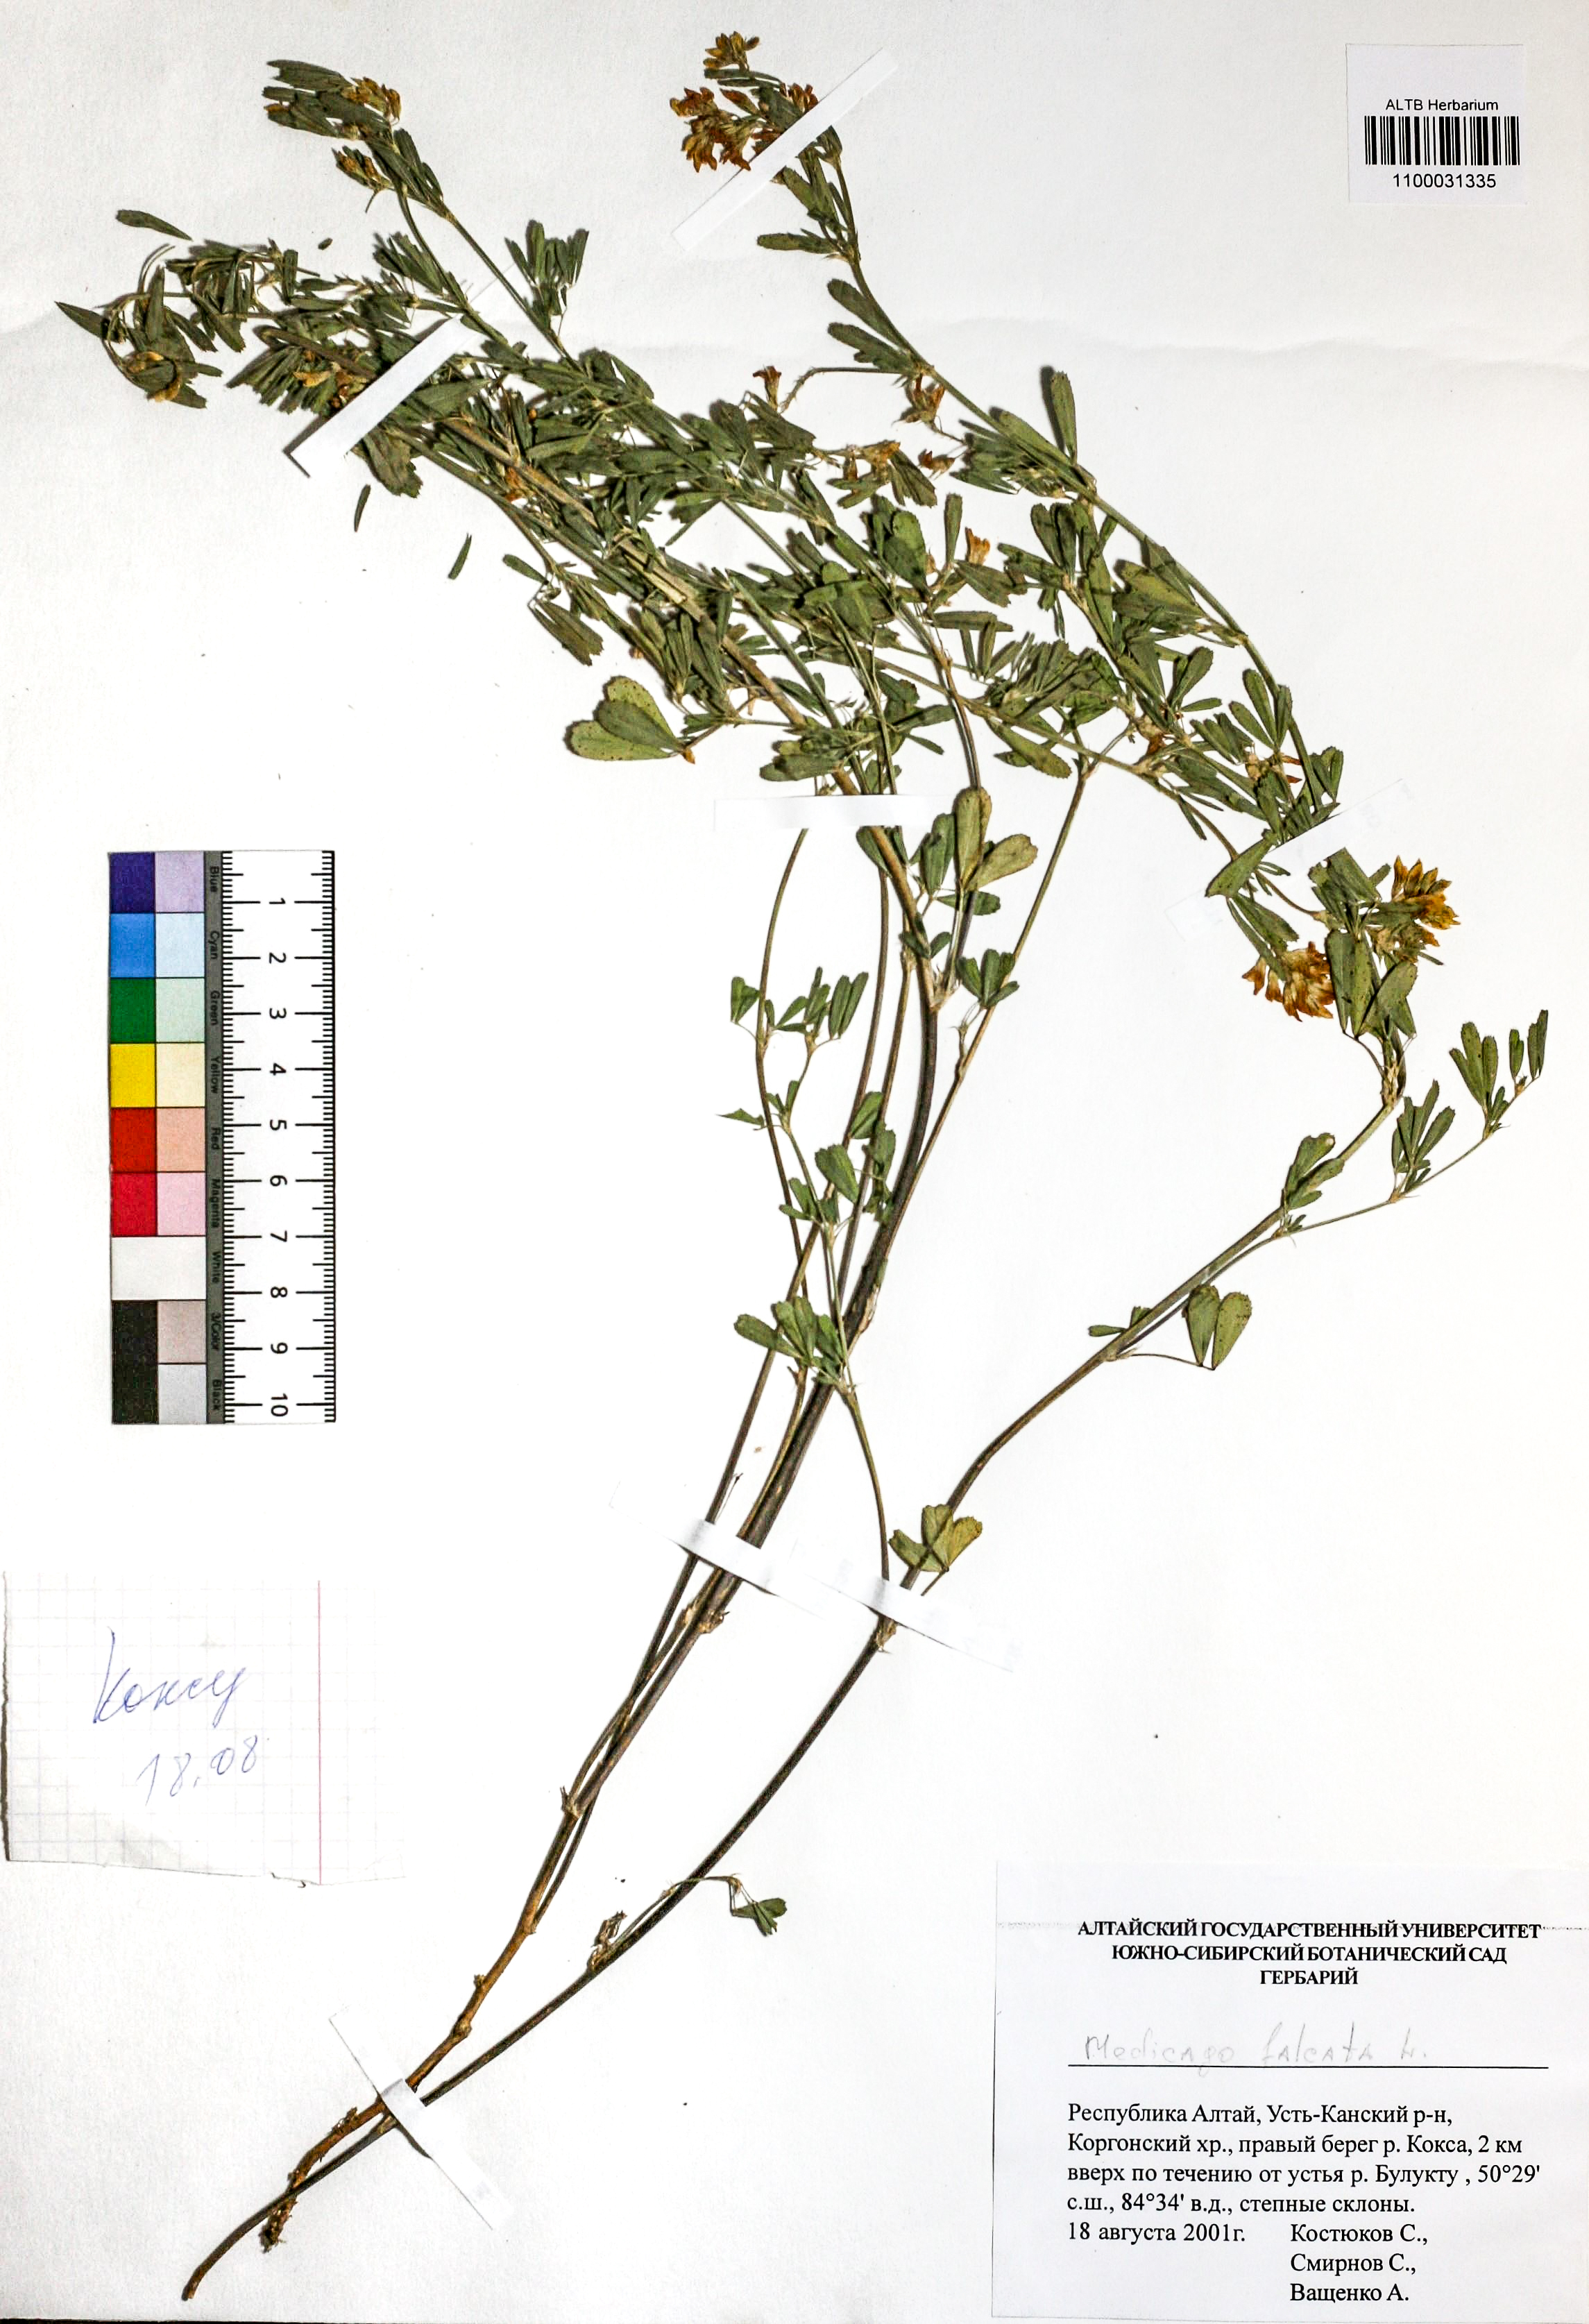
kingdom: Plantae
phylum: Tracheophyta
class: Magnoliopsida
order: Fabales
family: Fabaceae
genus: Medicago
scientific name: Medicago falcata
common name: Sickle medick
